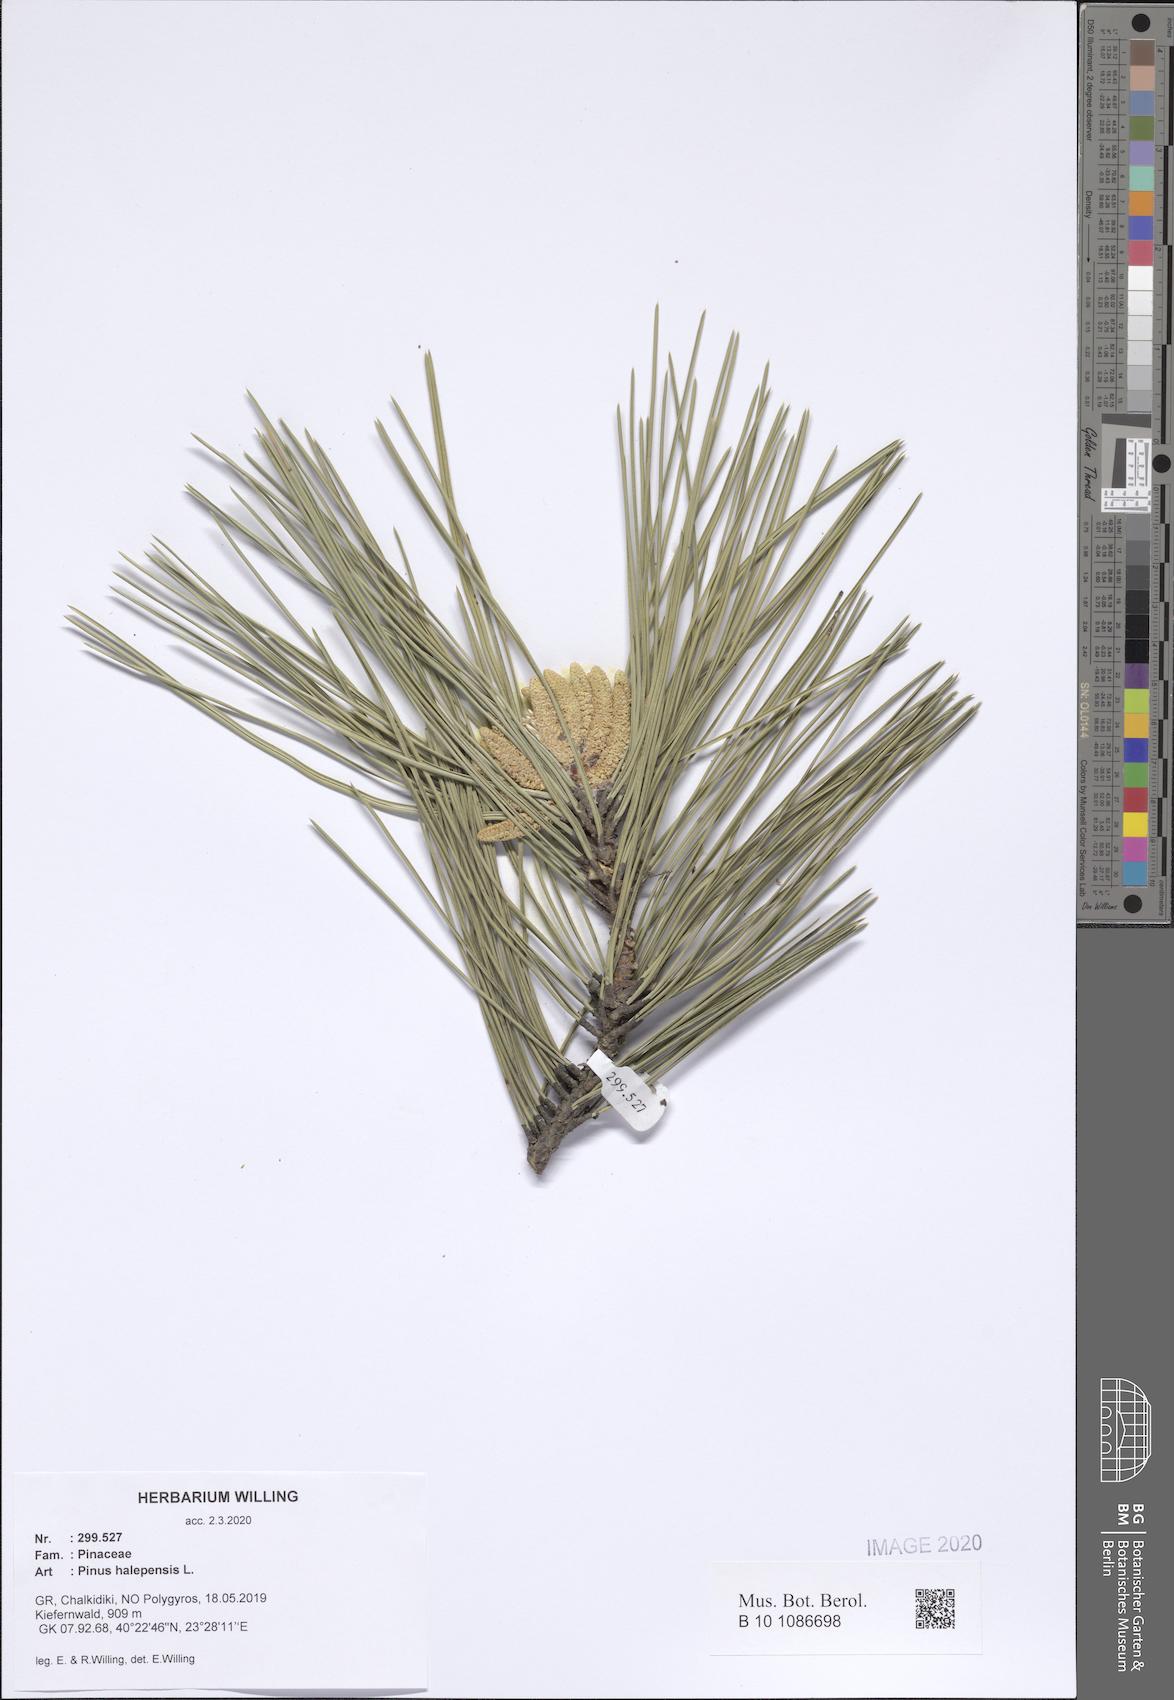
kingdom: Plantae
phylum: Tracheophyta
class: Pinopsida
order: Pinales
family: Pinaceae
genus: Pinus
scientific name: Pinus halepensis
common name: Aleppo pine
